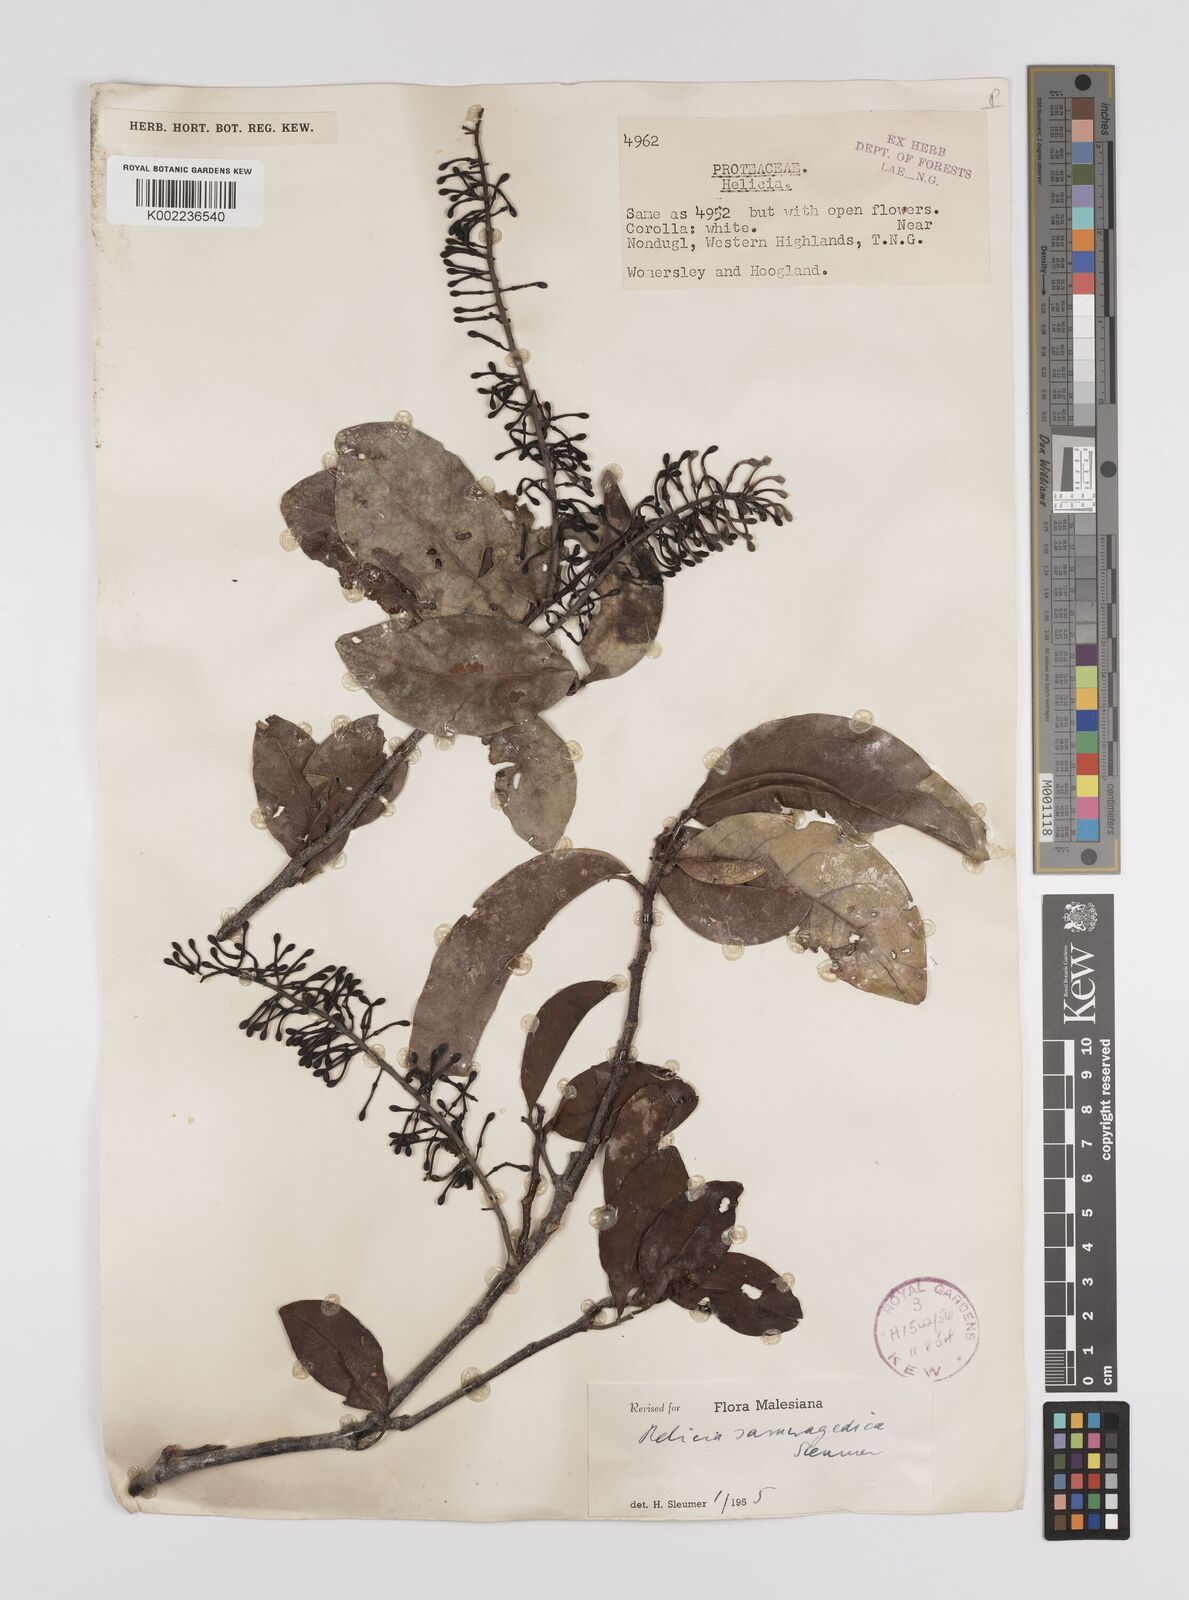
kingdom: Plantae
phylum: Tracheophyta
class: Magnoliopsida
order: Proteales
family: Proteaceae
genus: Helicia
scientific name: Helicia saruwagedica
